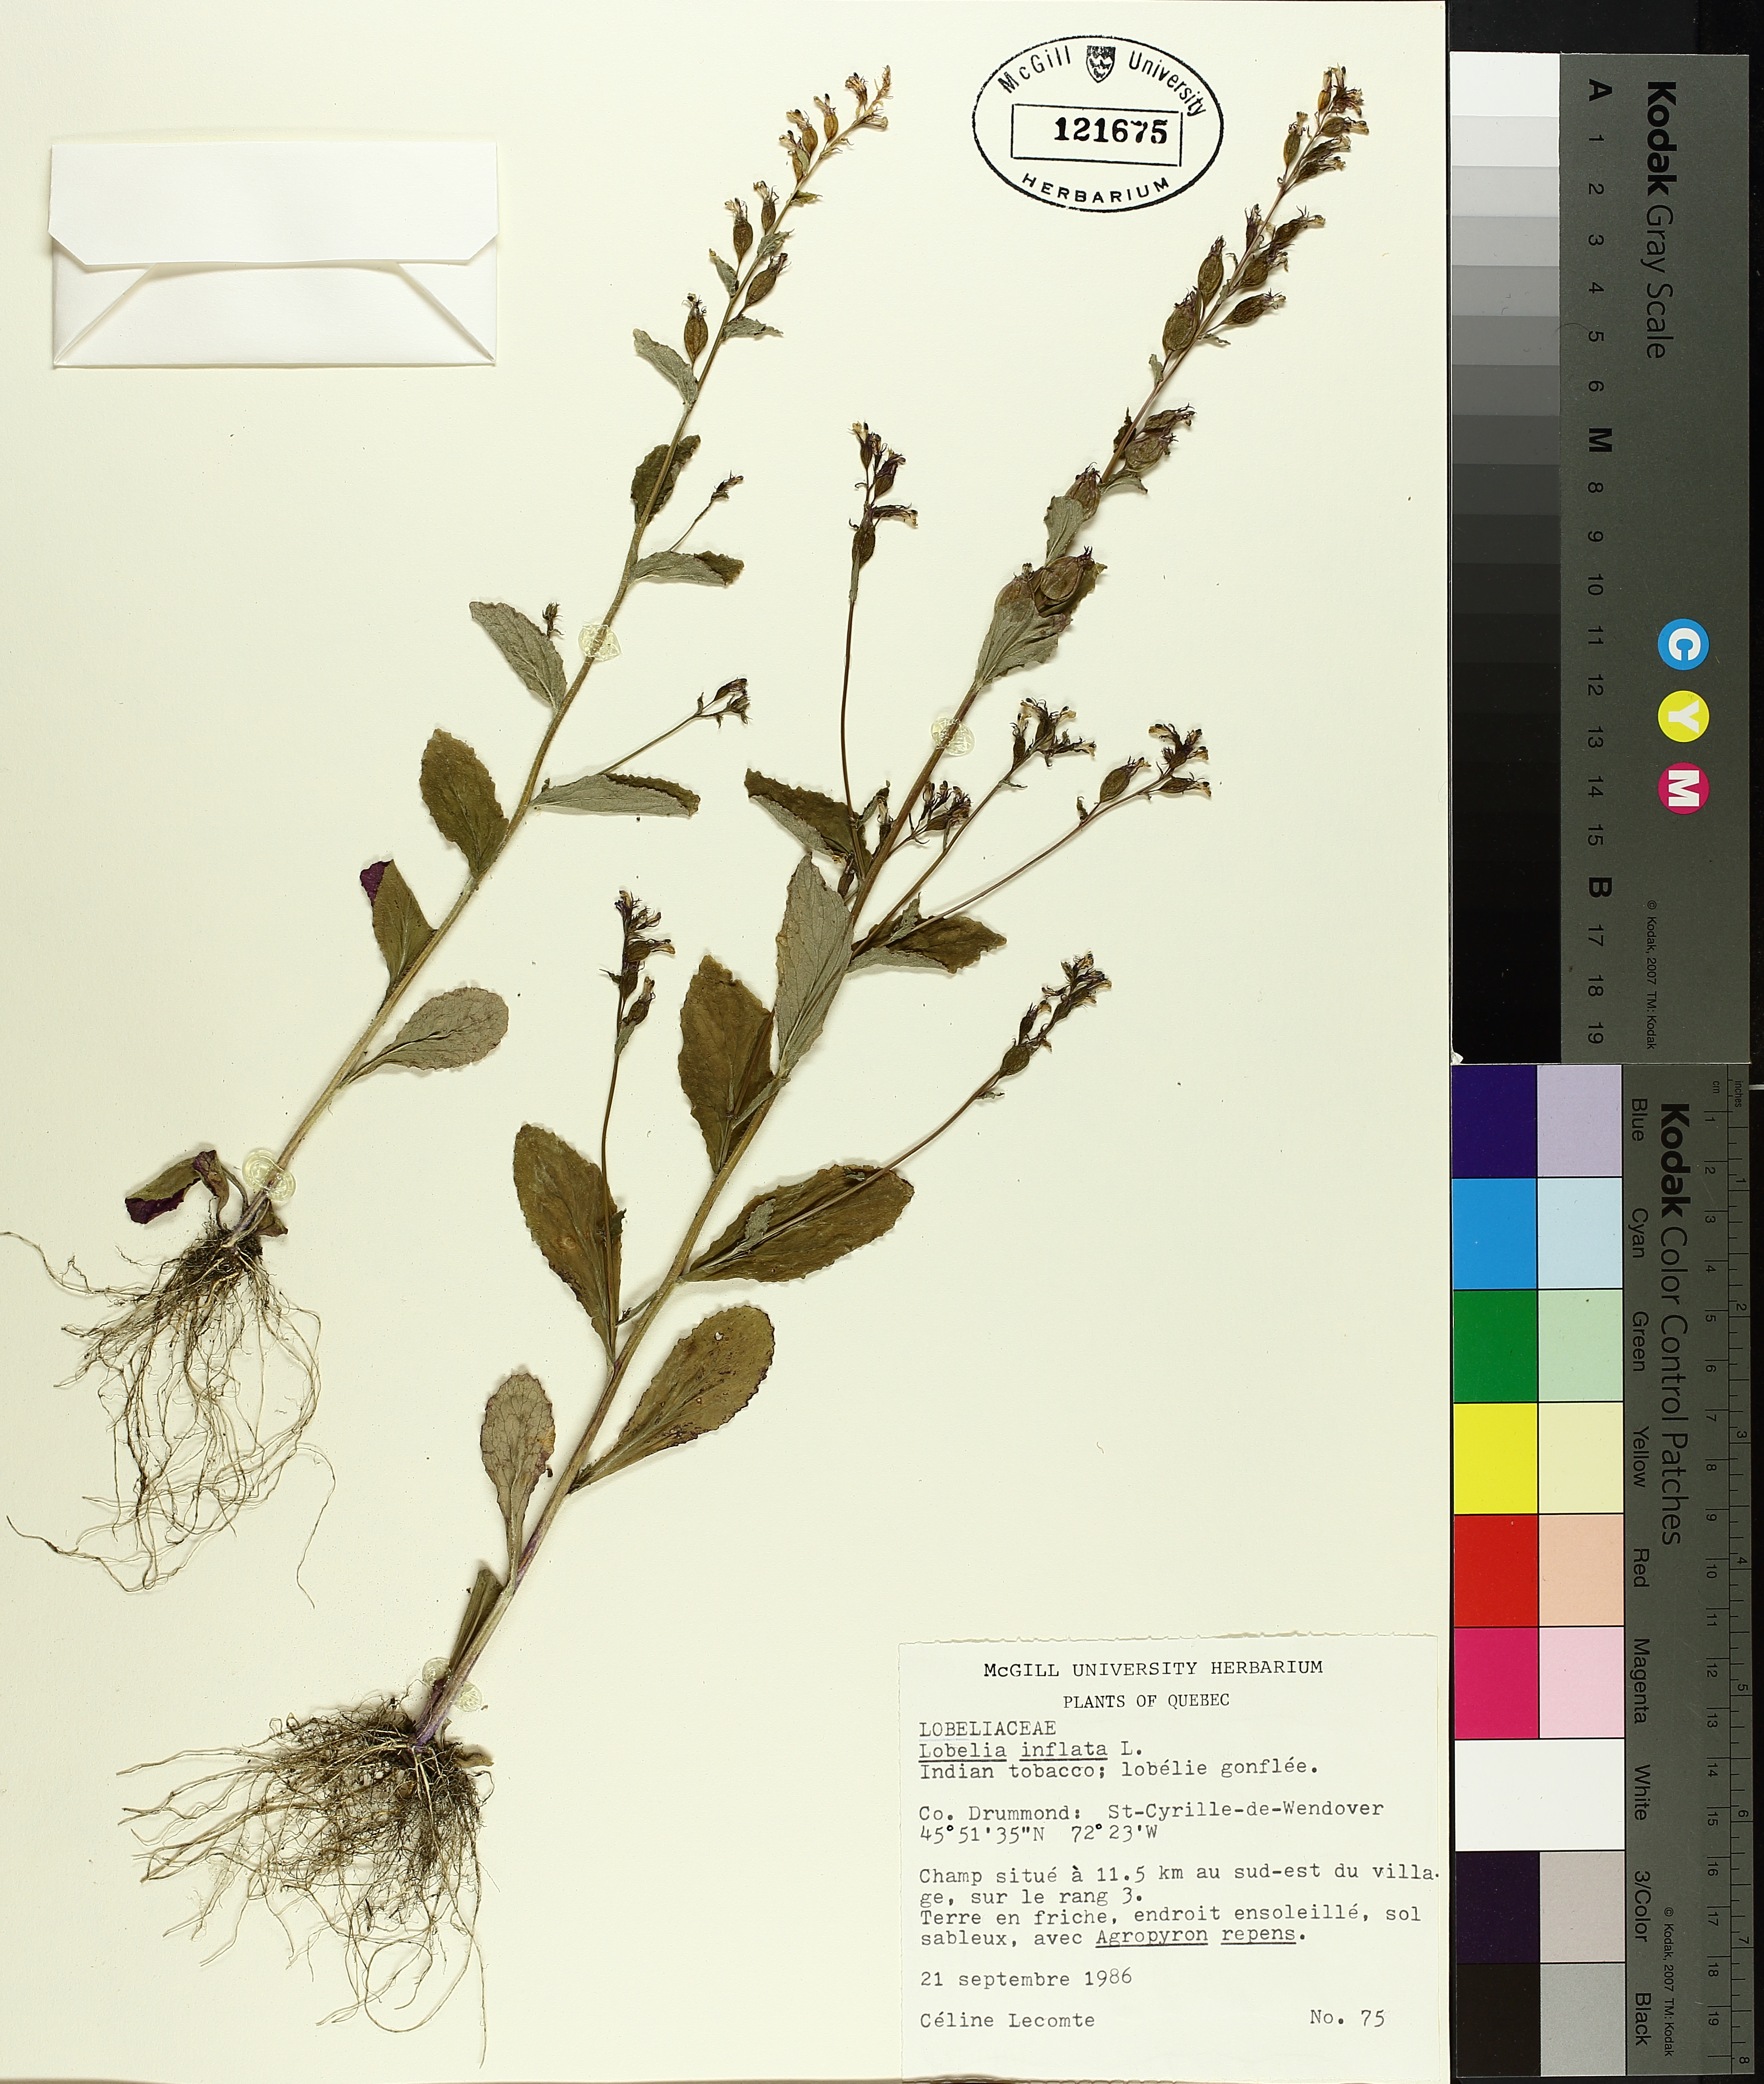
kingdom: Plantae
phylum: Tracheophyta
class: Liliopsida
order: Poales
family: Cyperaceae
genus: Carex
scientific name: Carex deweyana
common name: Dewey's sedge
